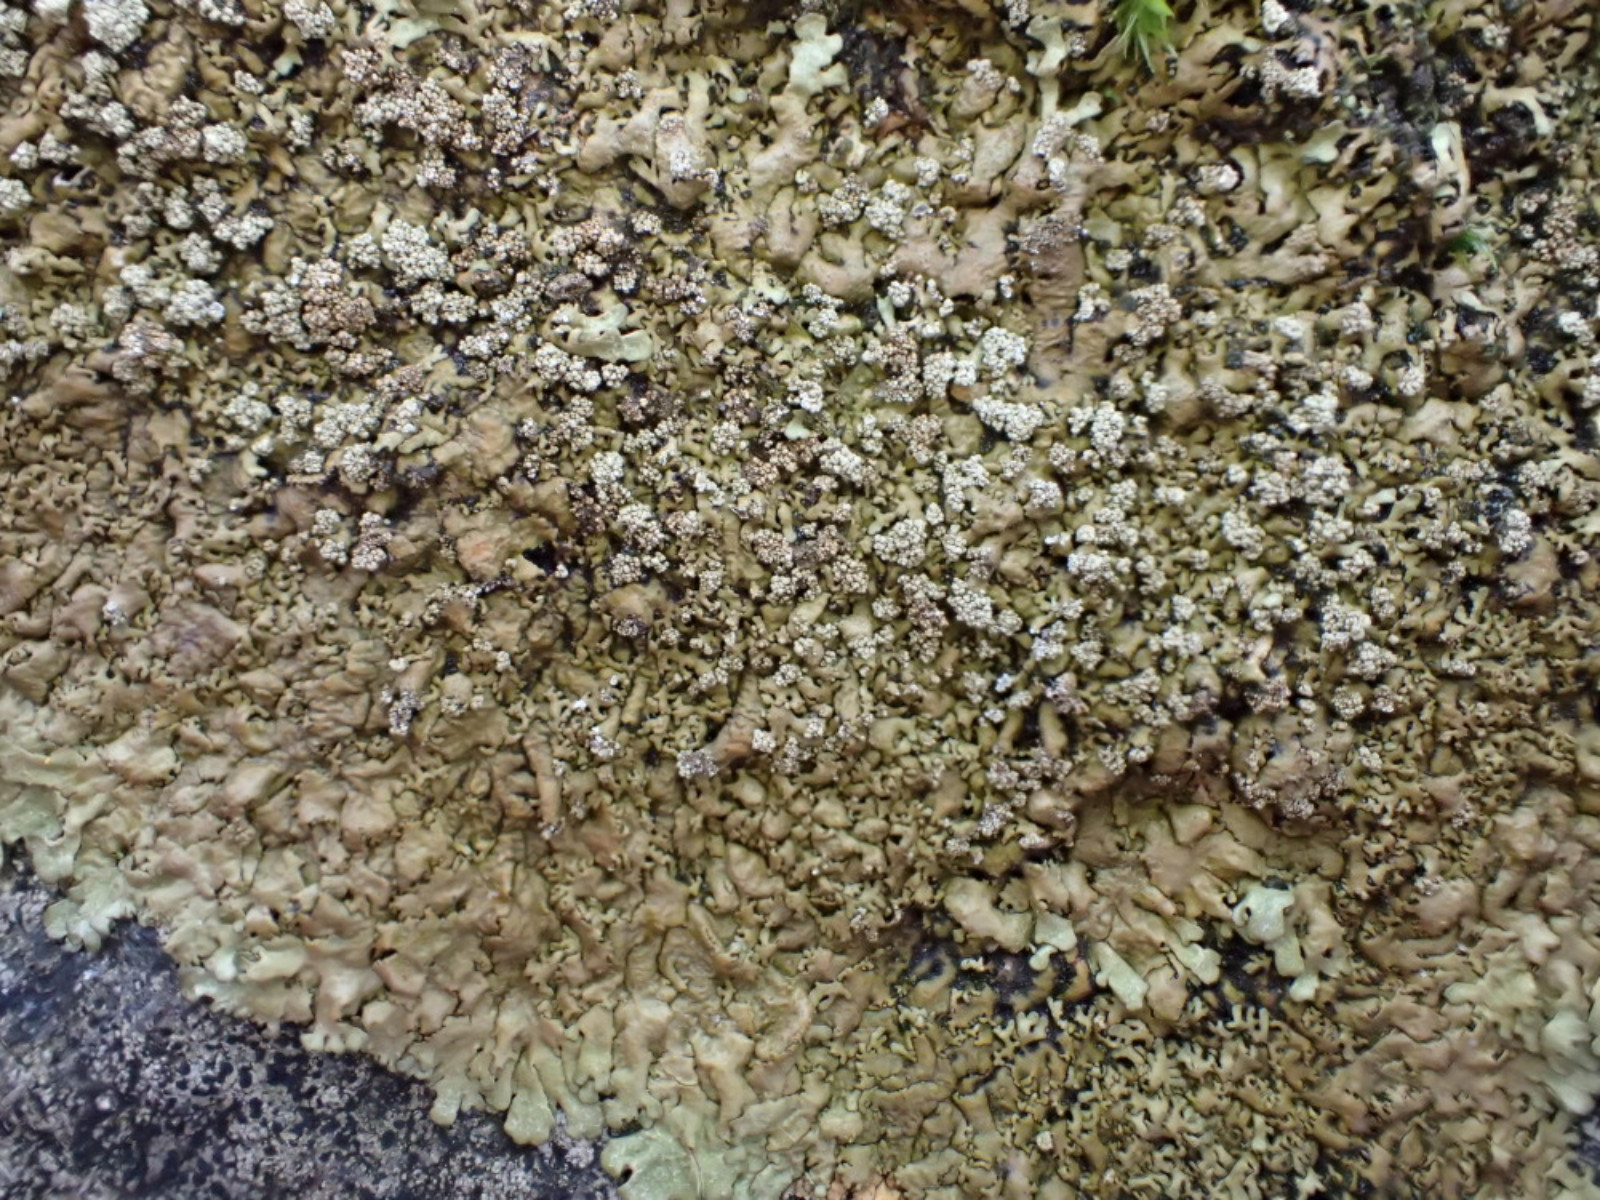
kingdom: Fungi
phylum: Ascomycota
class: Lecanoromycetes
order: Lecanorales
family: Parmeliaceae
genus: Xanthoparmelia
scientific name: Xanthoparmelia loxodes
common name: knudret skållav
